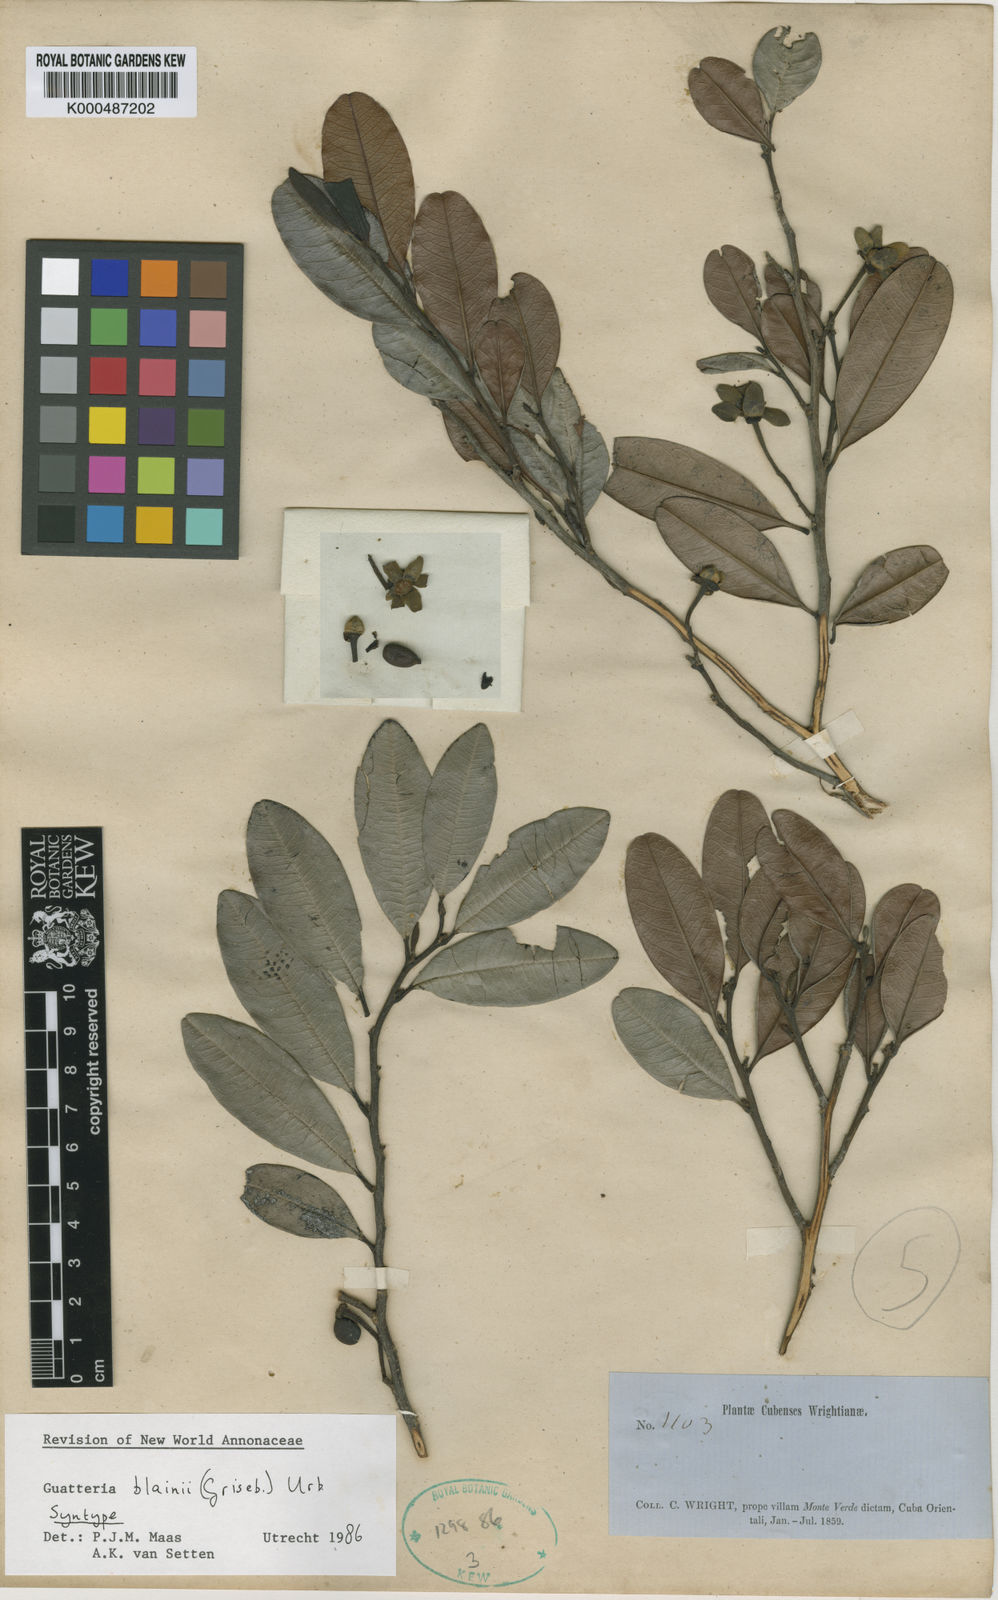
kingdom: Plantae
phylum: Tracheophyta
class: Magnoliopsida
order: Magnoliales
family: Annonaceae
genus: Guatteria
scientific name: Guatteria blainii
